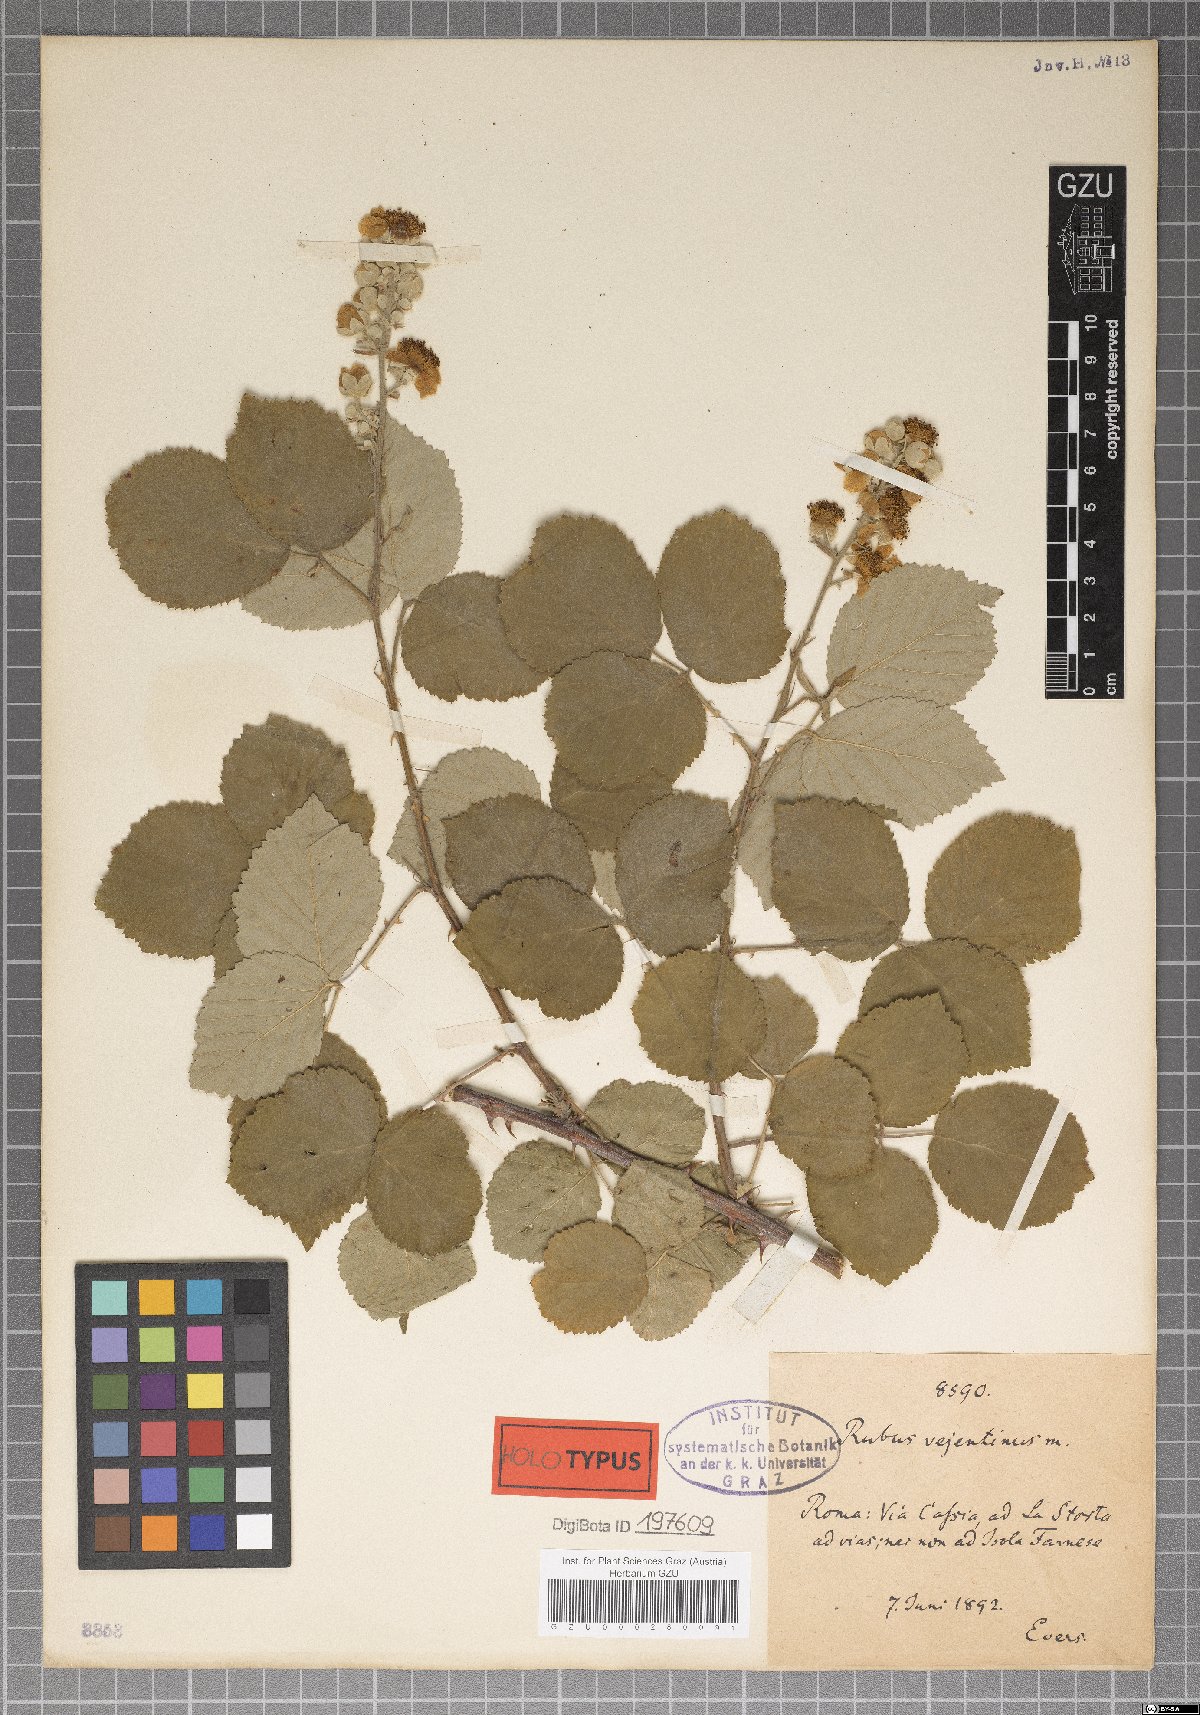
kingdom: Plantae
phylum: Tracheophyta
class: Magnoliopsida
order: Rosales
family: Rosaceae
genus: Rubus
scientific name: Rubus vejentinus
